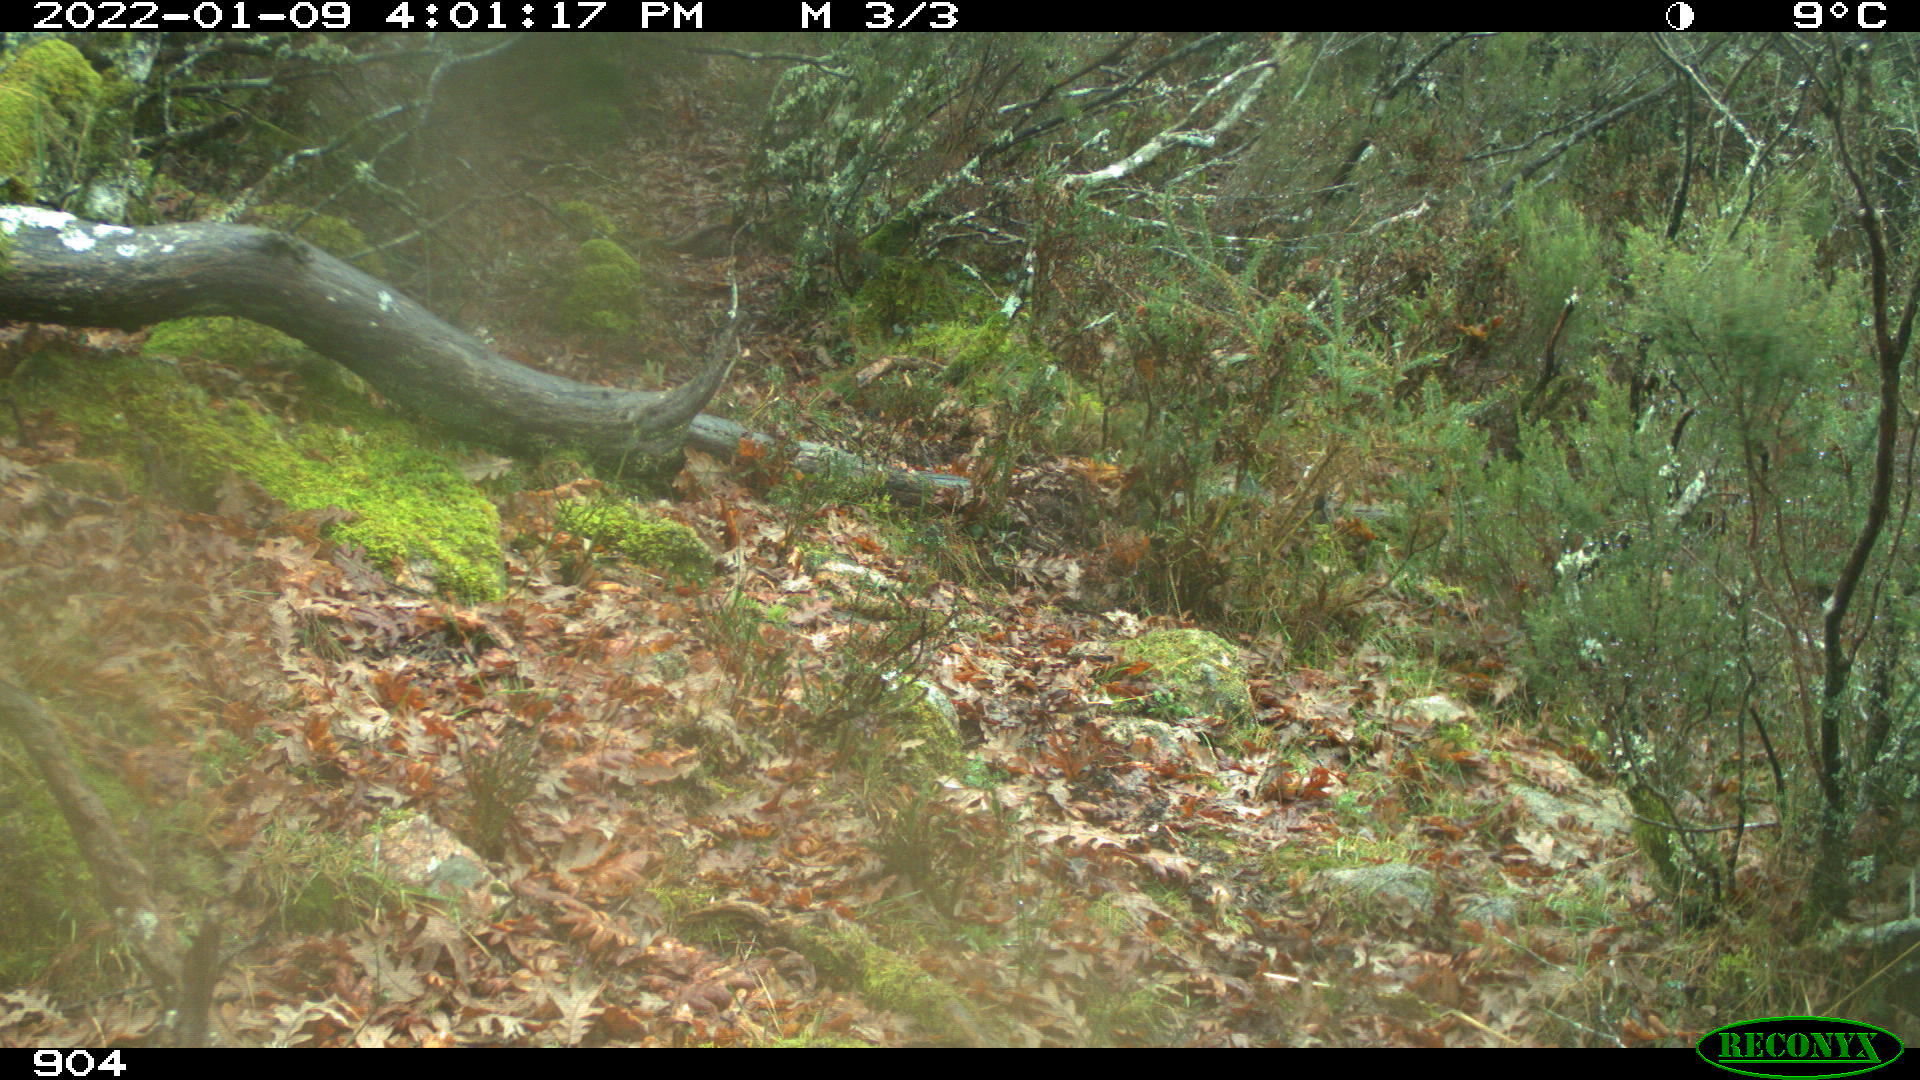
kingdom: Animalia
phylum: Chordata
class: Mammalia
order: Artiodactyla
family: Bovidae
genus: Bos
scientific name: Bos taurus
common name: Domesticated cattle
